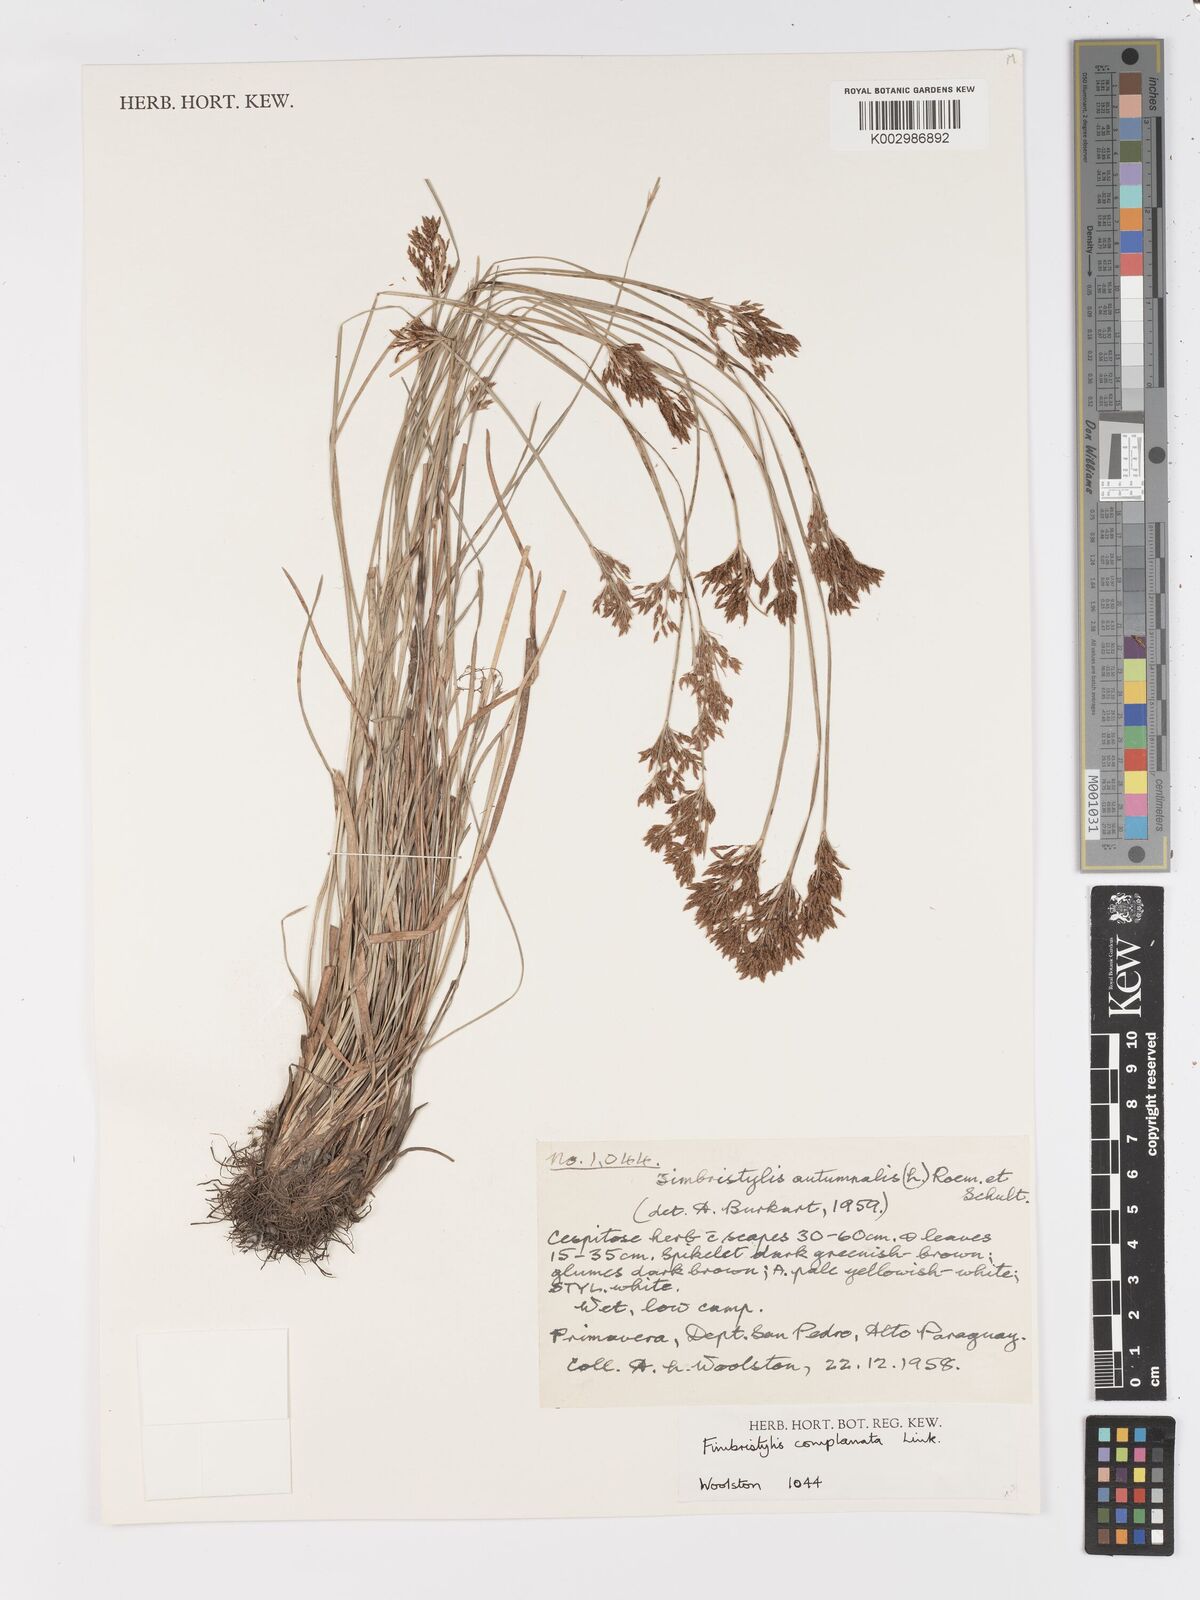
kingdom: Plantae
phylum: Tracheophyta
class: Liliopsida
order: Poales
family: Cyperaceae
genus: Fimbristylis
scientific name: Fimbristylis complanata
